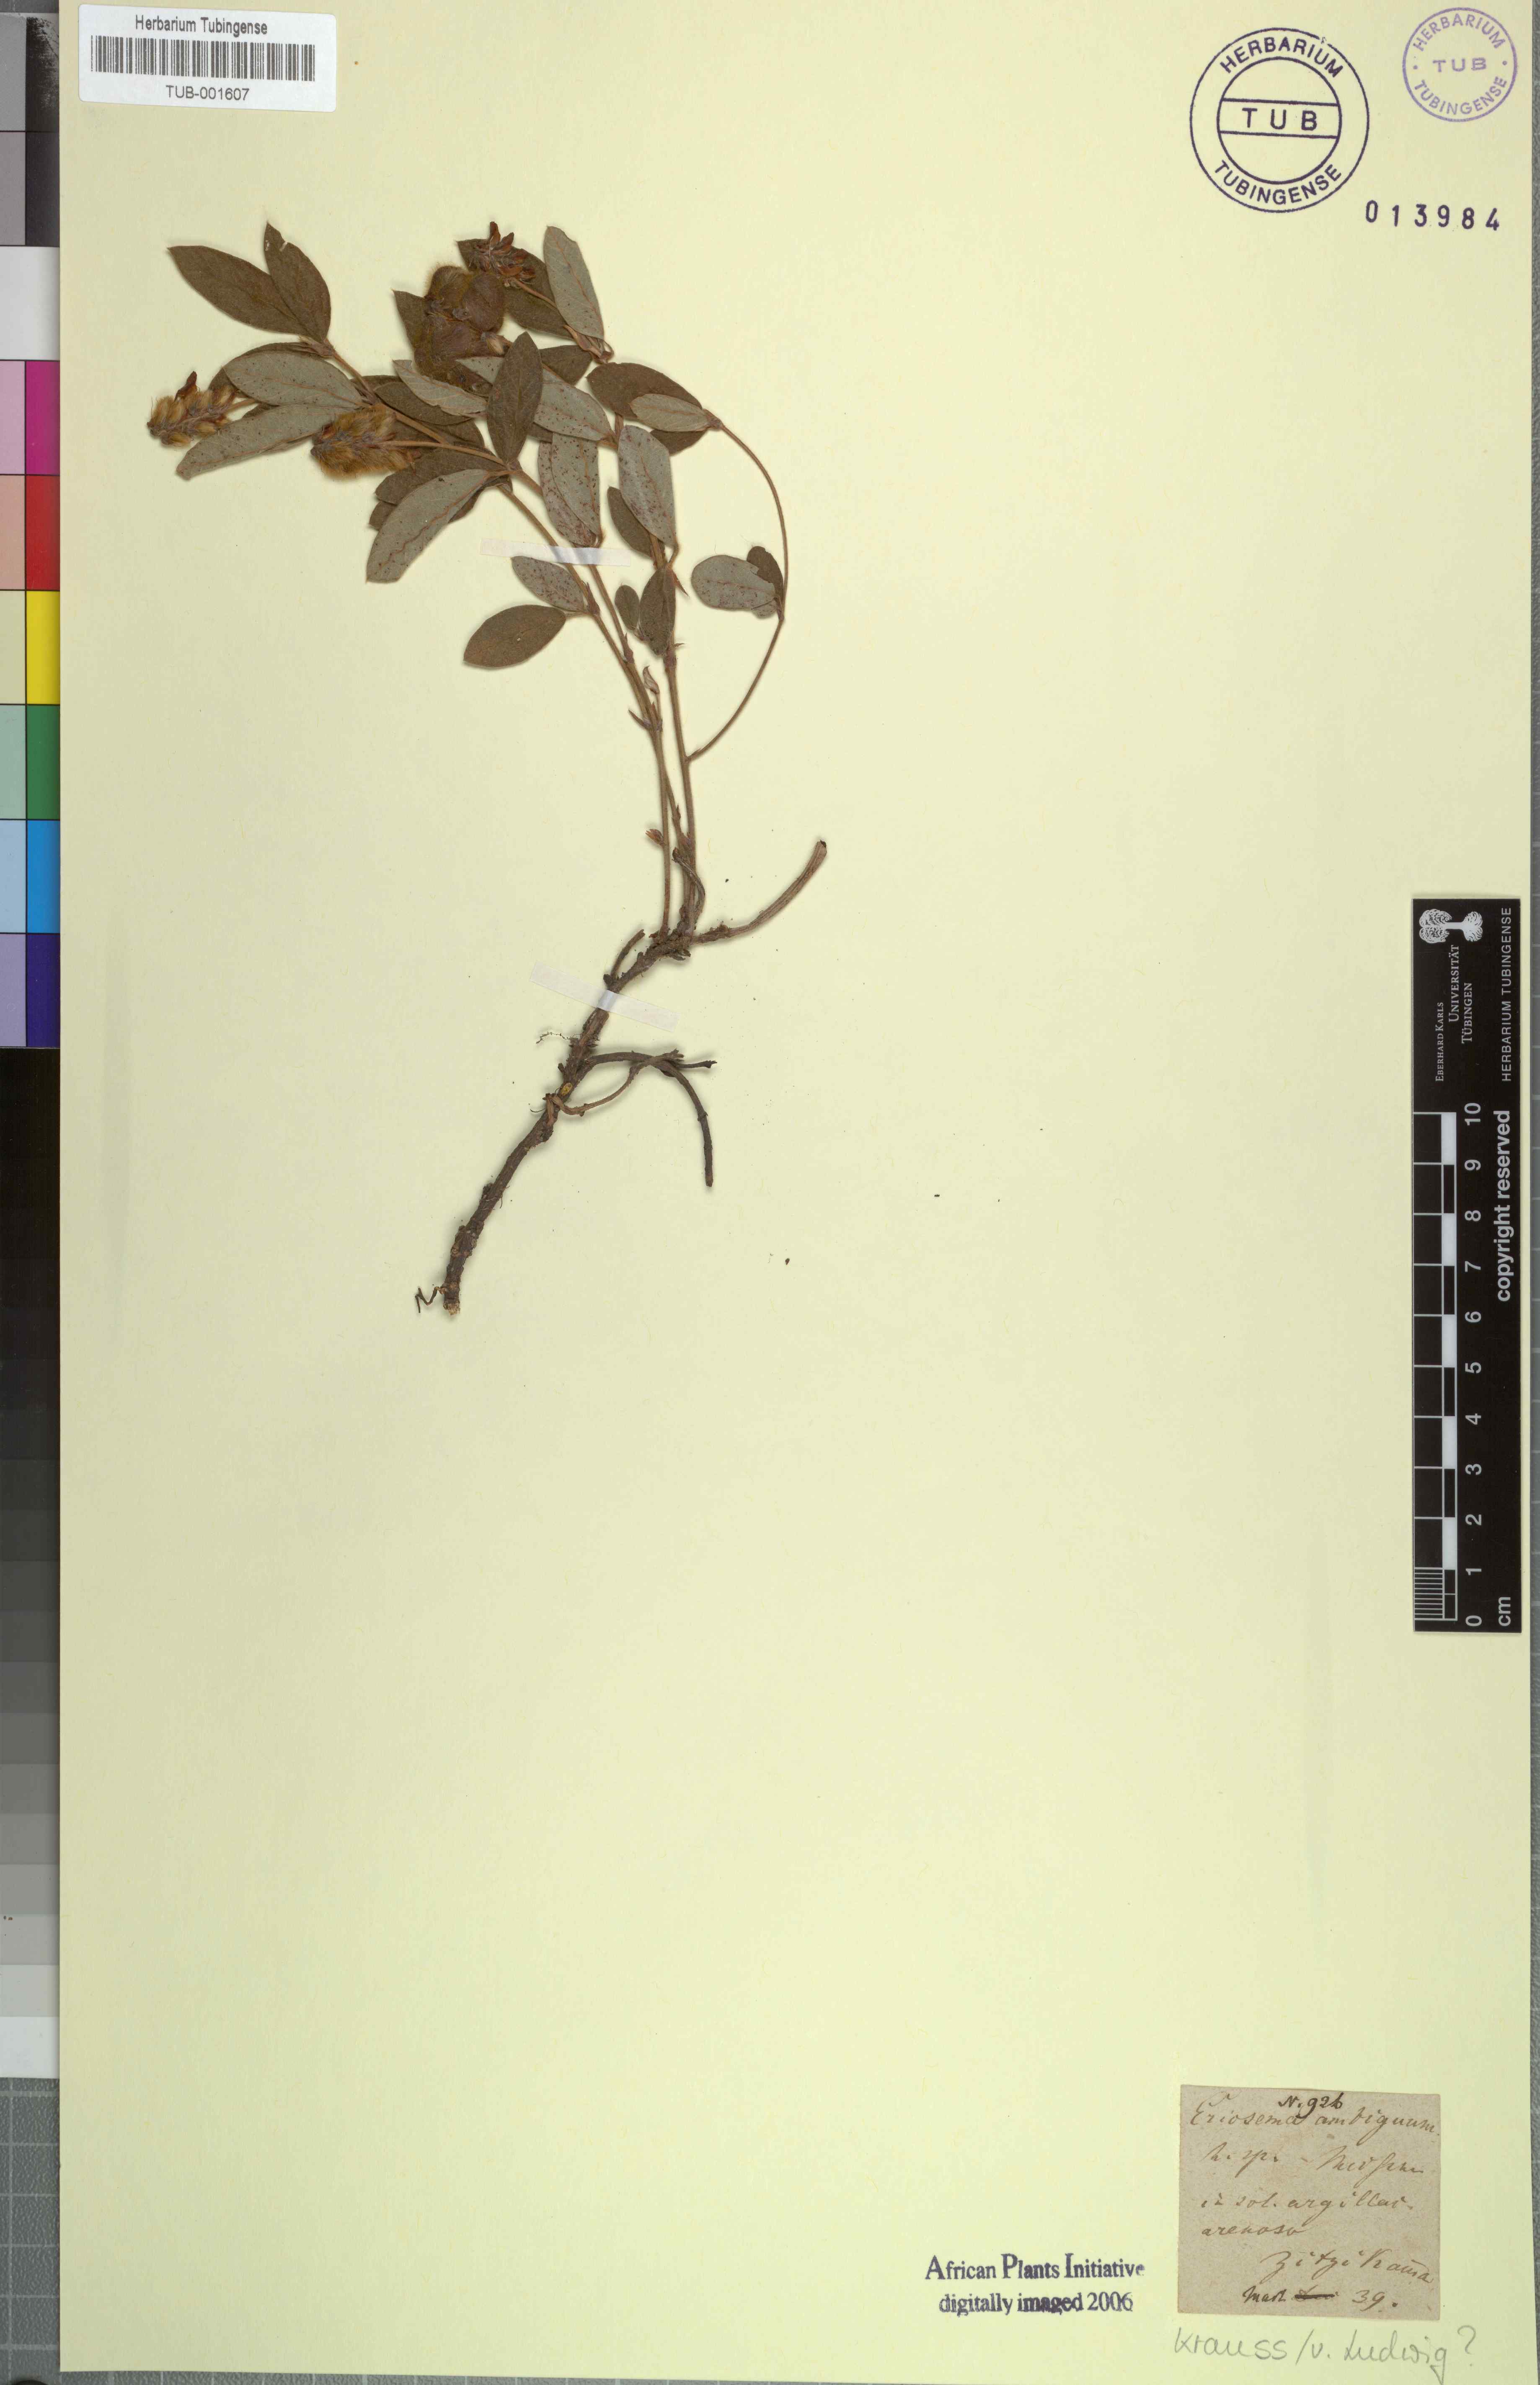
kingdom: Plantae
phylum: Tracheophyta
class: Magnoliopsida
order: Fabales
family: Fabaceae
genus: Rhynchosia
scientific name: Rhynchosia sordida
